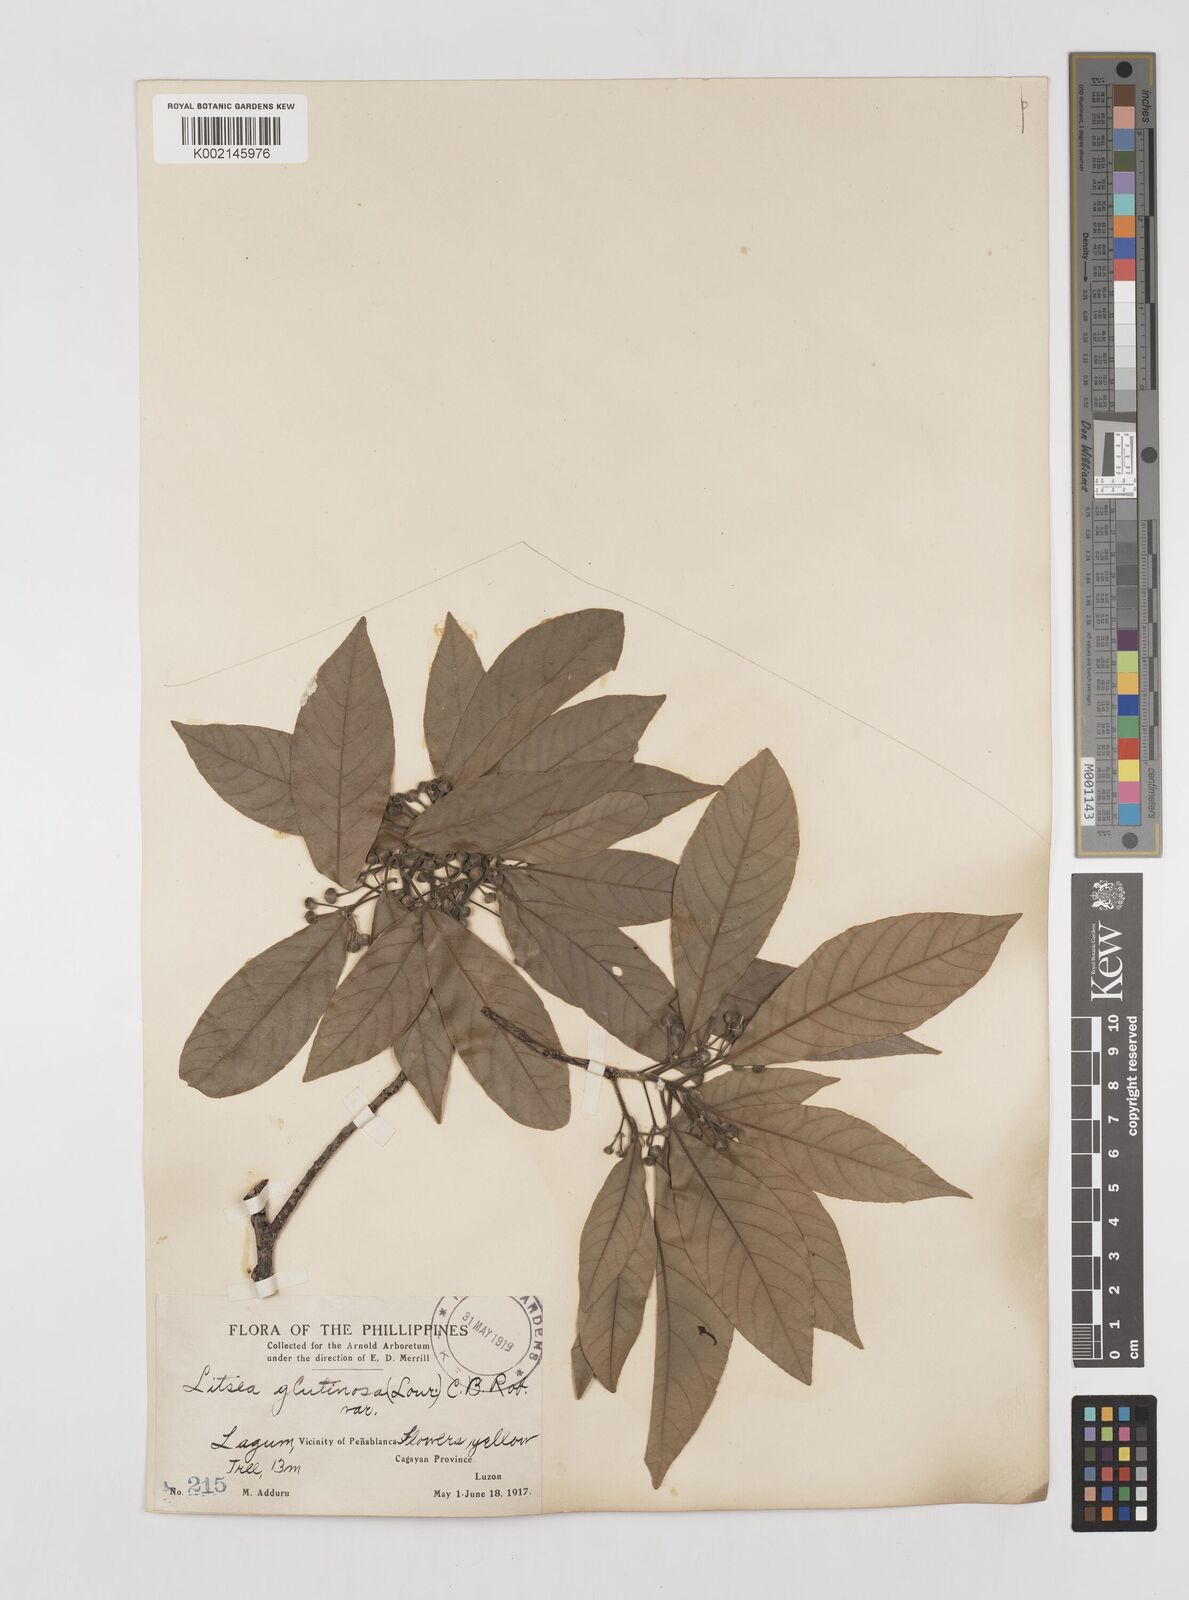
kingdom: Plantae
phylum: Tracheophyta
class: Magnoliopsida
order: Laurales
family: Lauraceae
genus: Litsea
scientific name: Litsea glutinosa
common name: Indian-laurel
